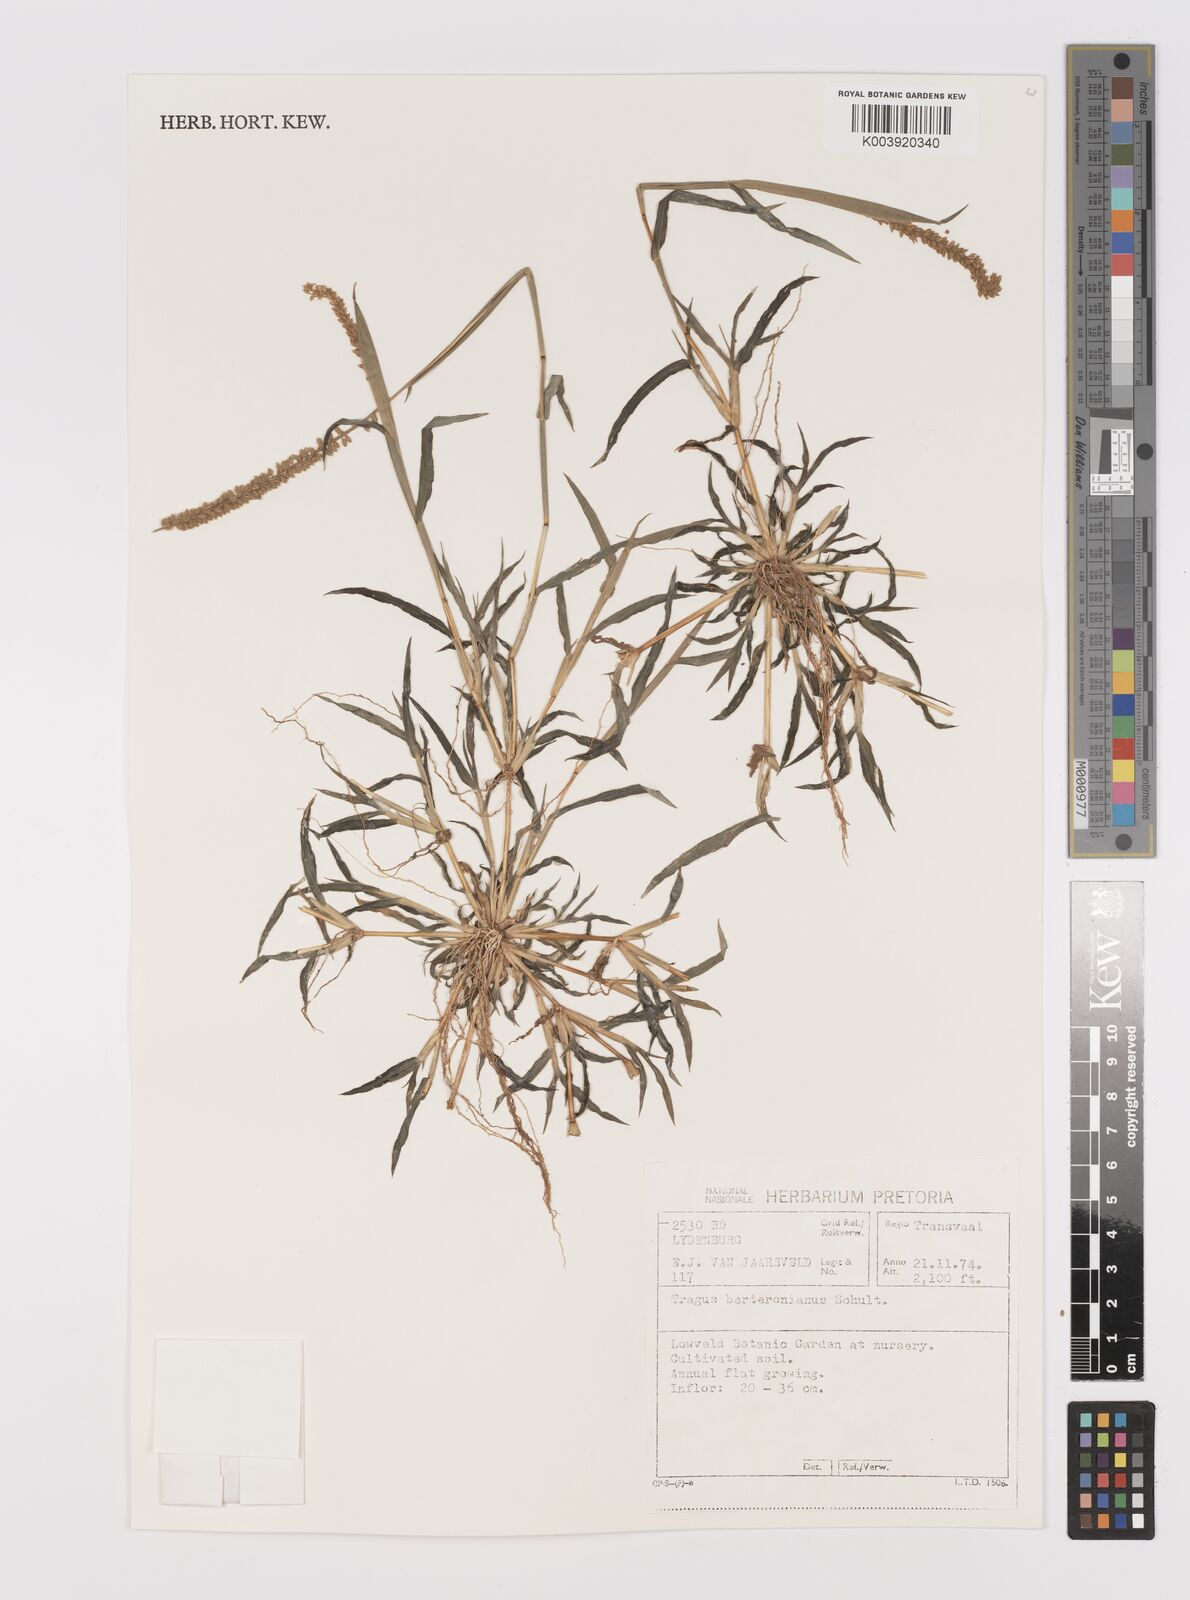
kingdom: Plantae
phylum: Tracheophyta
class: Liliopsida
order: Poales
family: Poaceae
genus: Tragus
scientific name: Tragus berteronianus
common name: African bur-grass
